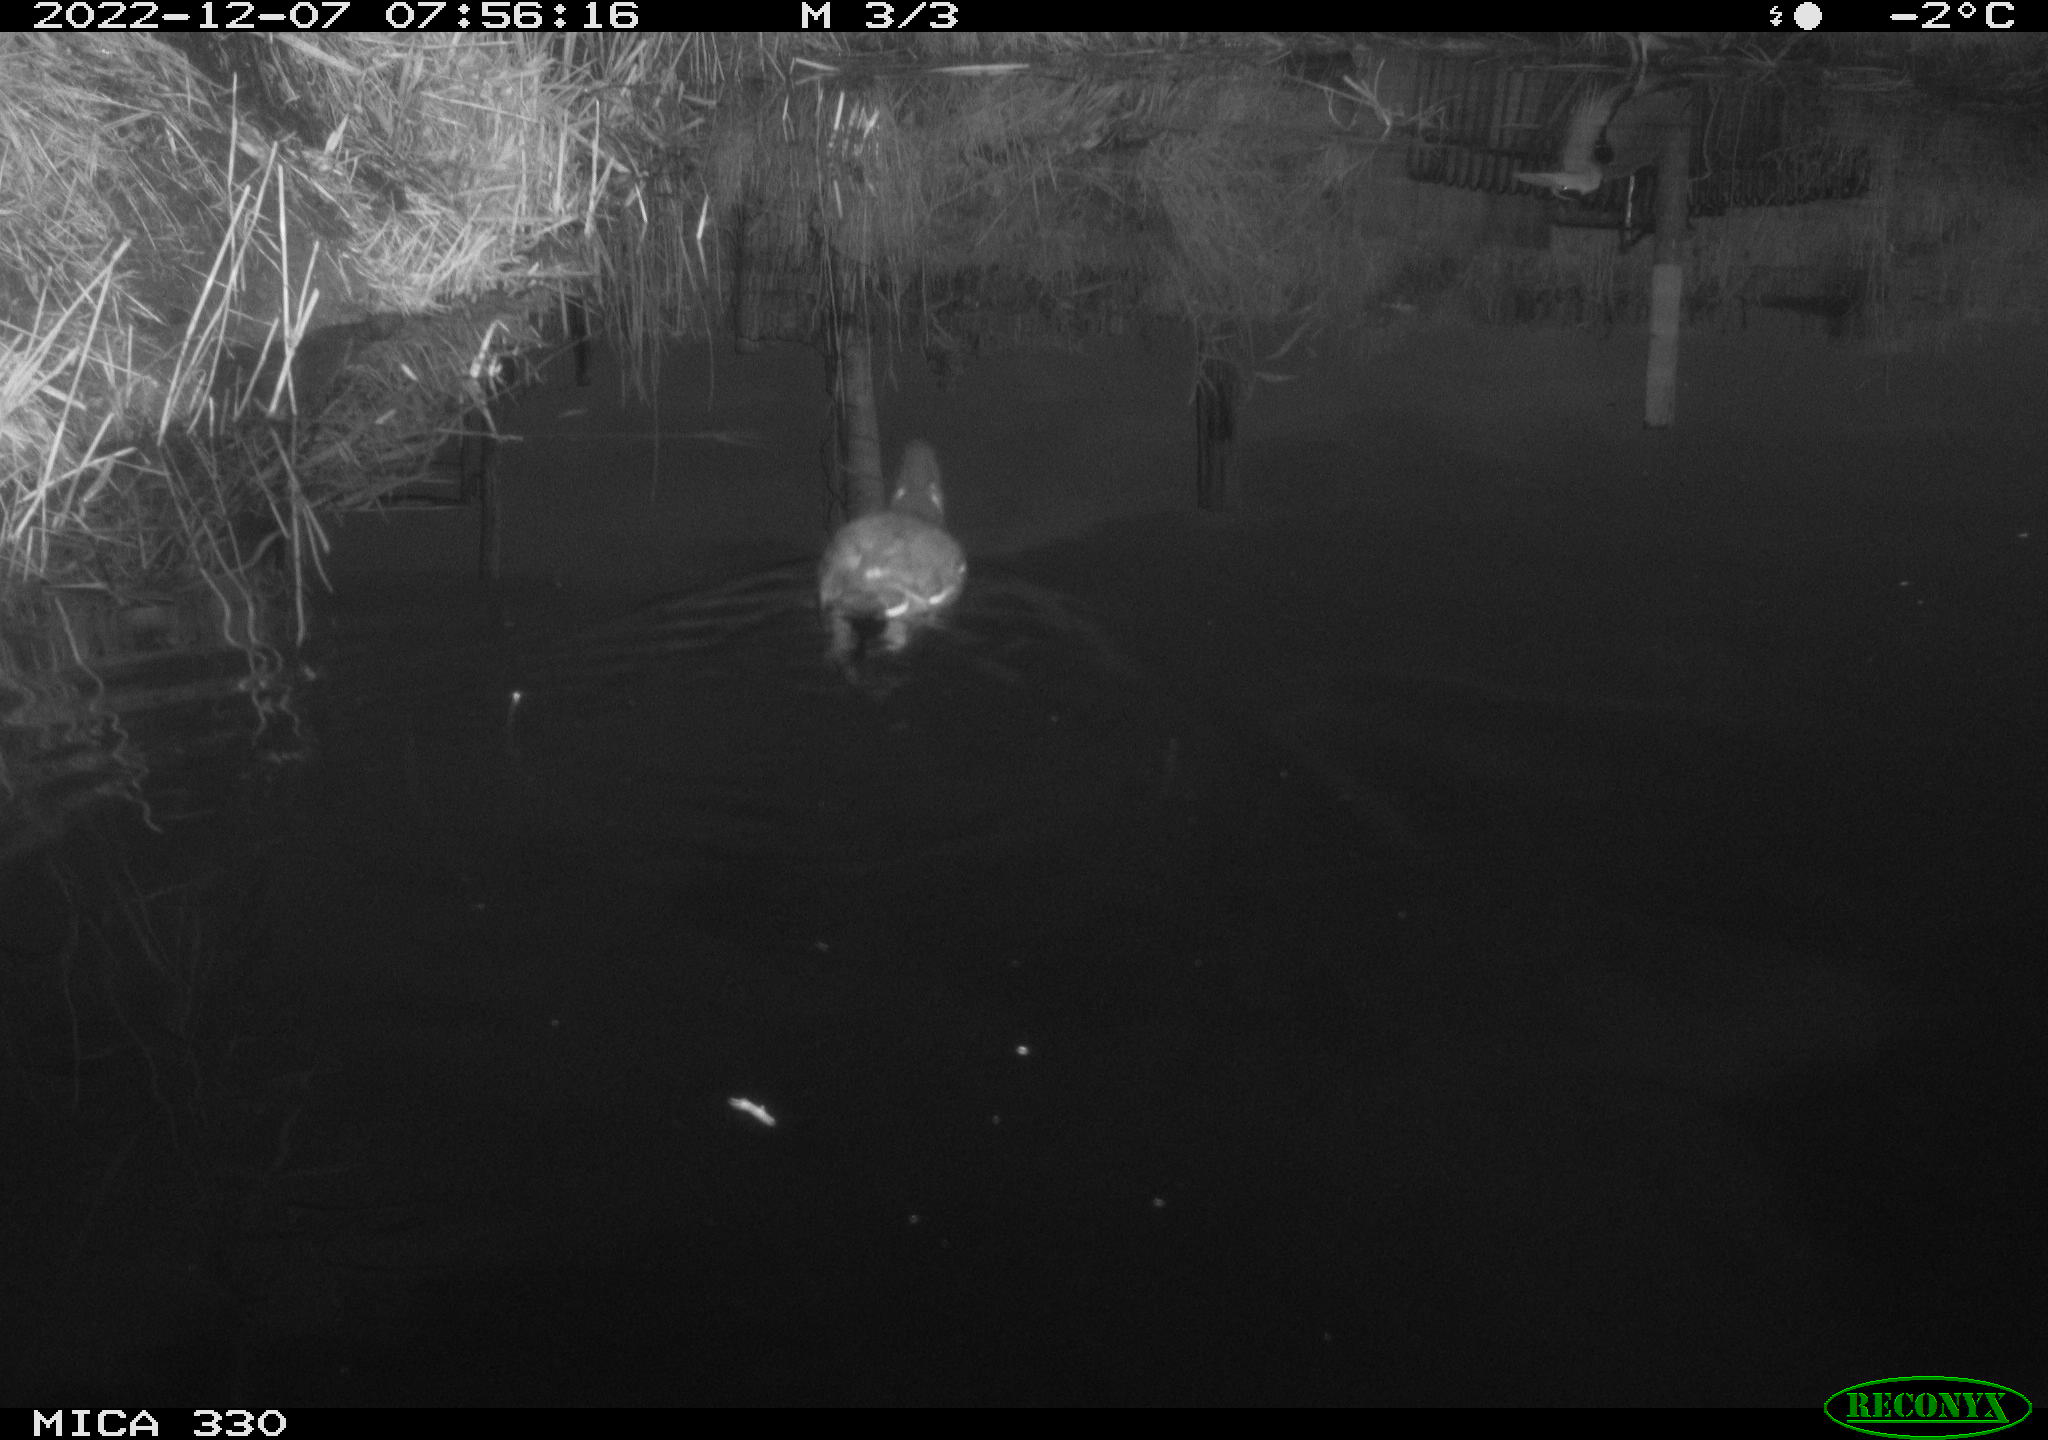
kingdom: Animalia
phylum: Chordata
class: Aves
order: Gruiformes
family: Rallidae
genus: Gallinula
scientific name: Gallinula chloropus
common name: Common moorhen
